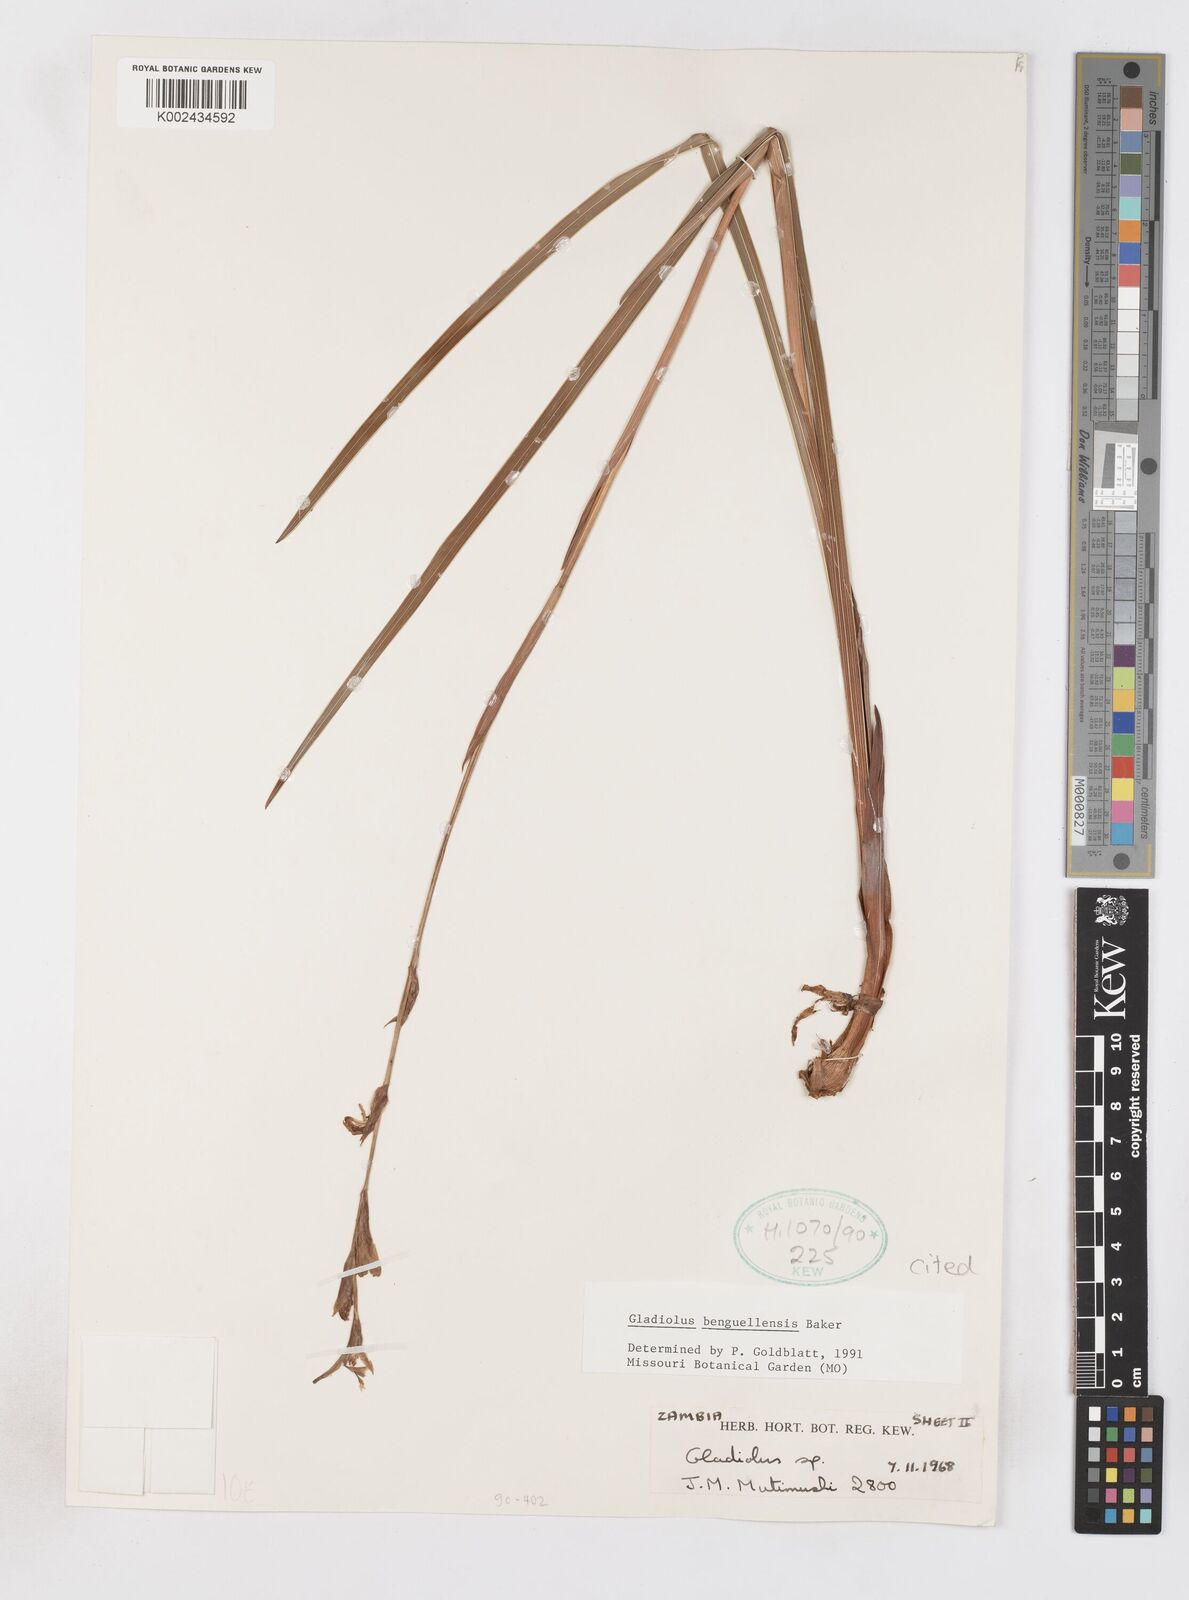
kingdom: Plantae
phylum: Tracheophyta
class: Liliopsida
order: Asparagales
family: Iridaceae
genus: Gladiolus
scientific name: Gladiolus benguellensis
